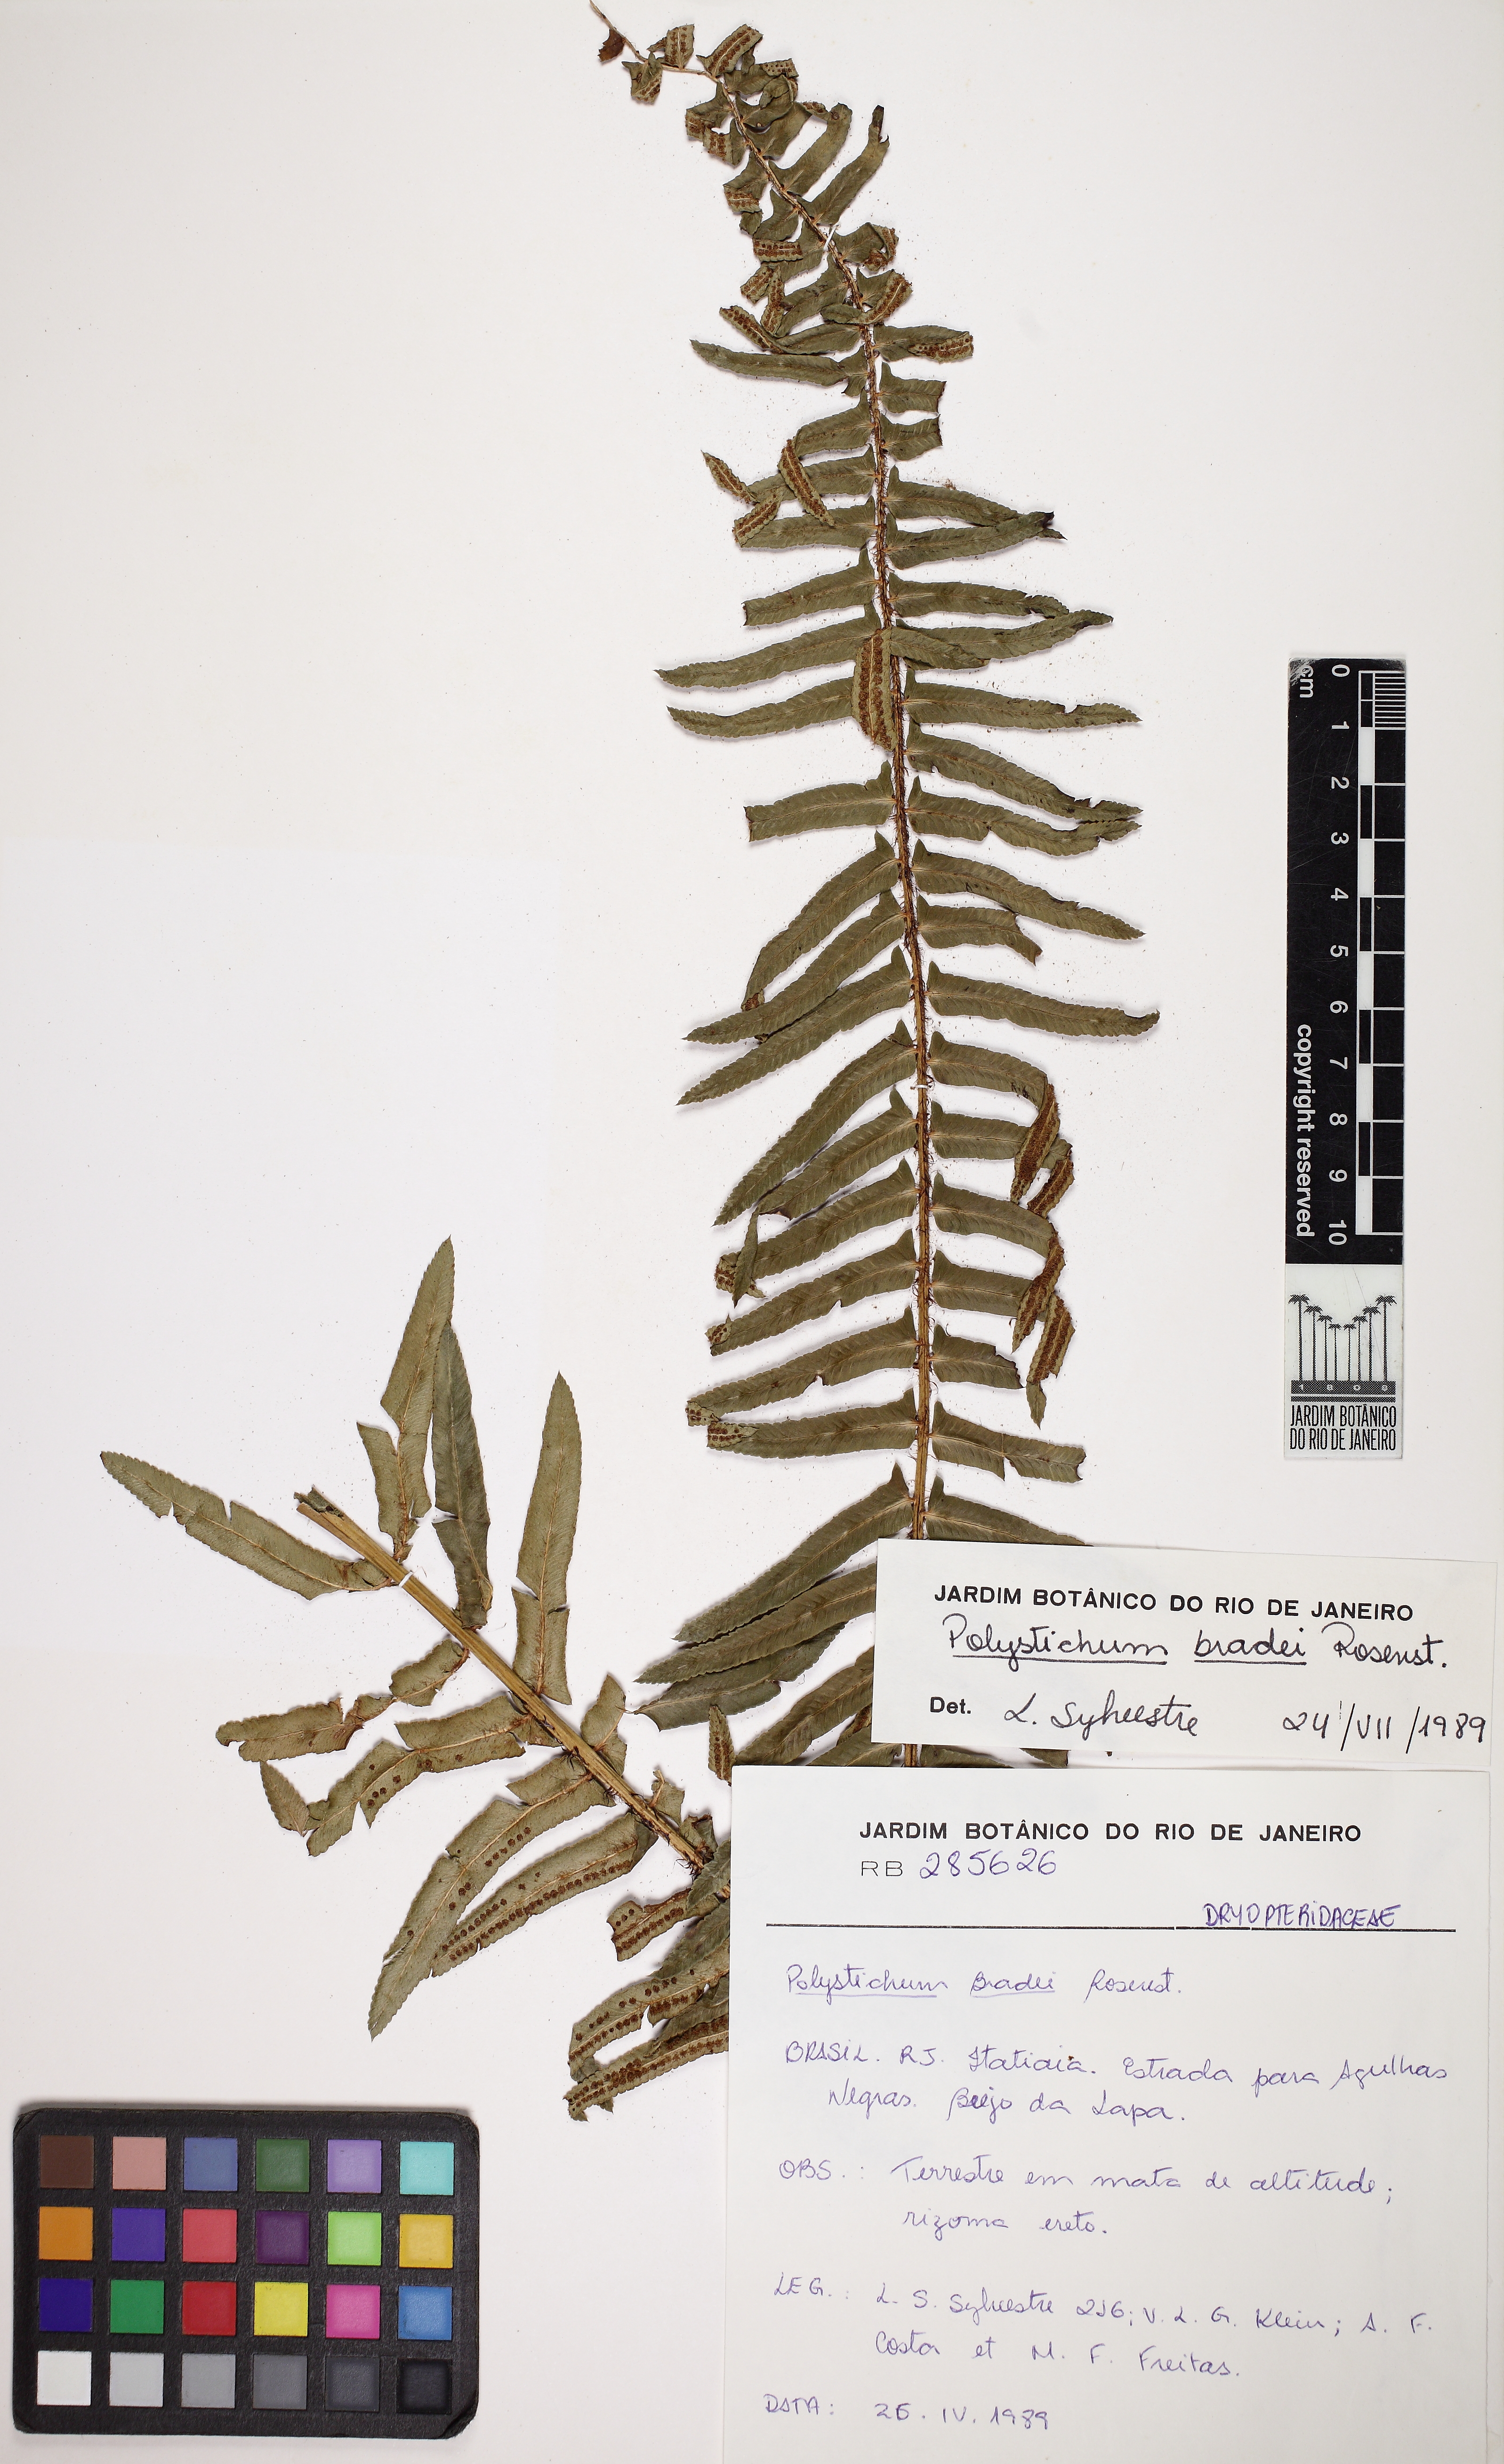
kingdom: Plantae
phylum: Tracheophyta
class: Polypodiopsida
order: Polypodiales
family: Dryopteridaceae
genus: Polystichum
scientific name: Polystichum bradei
